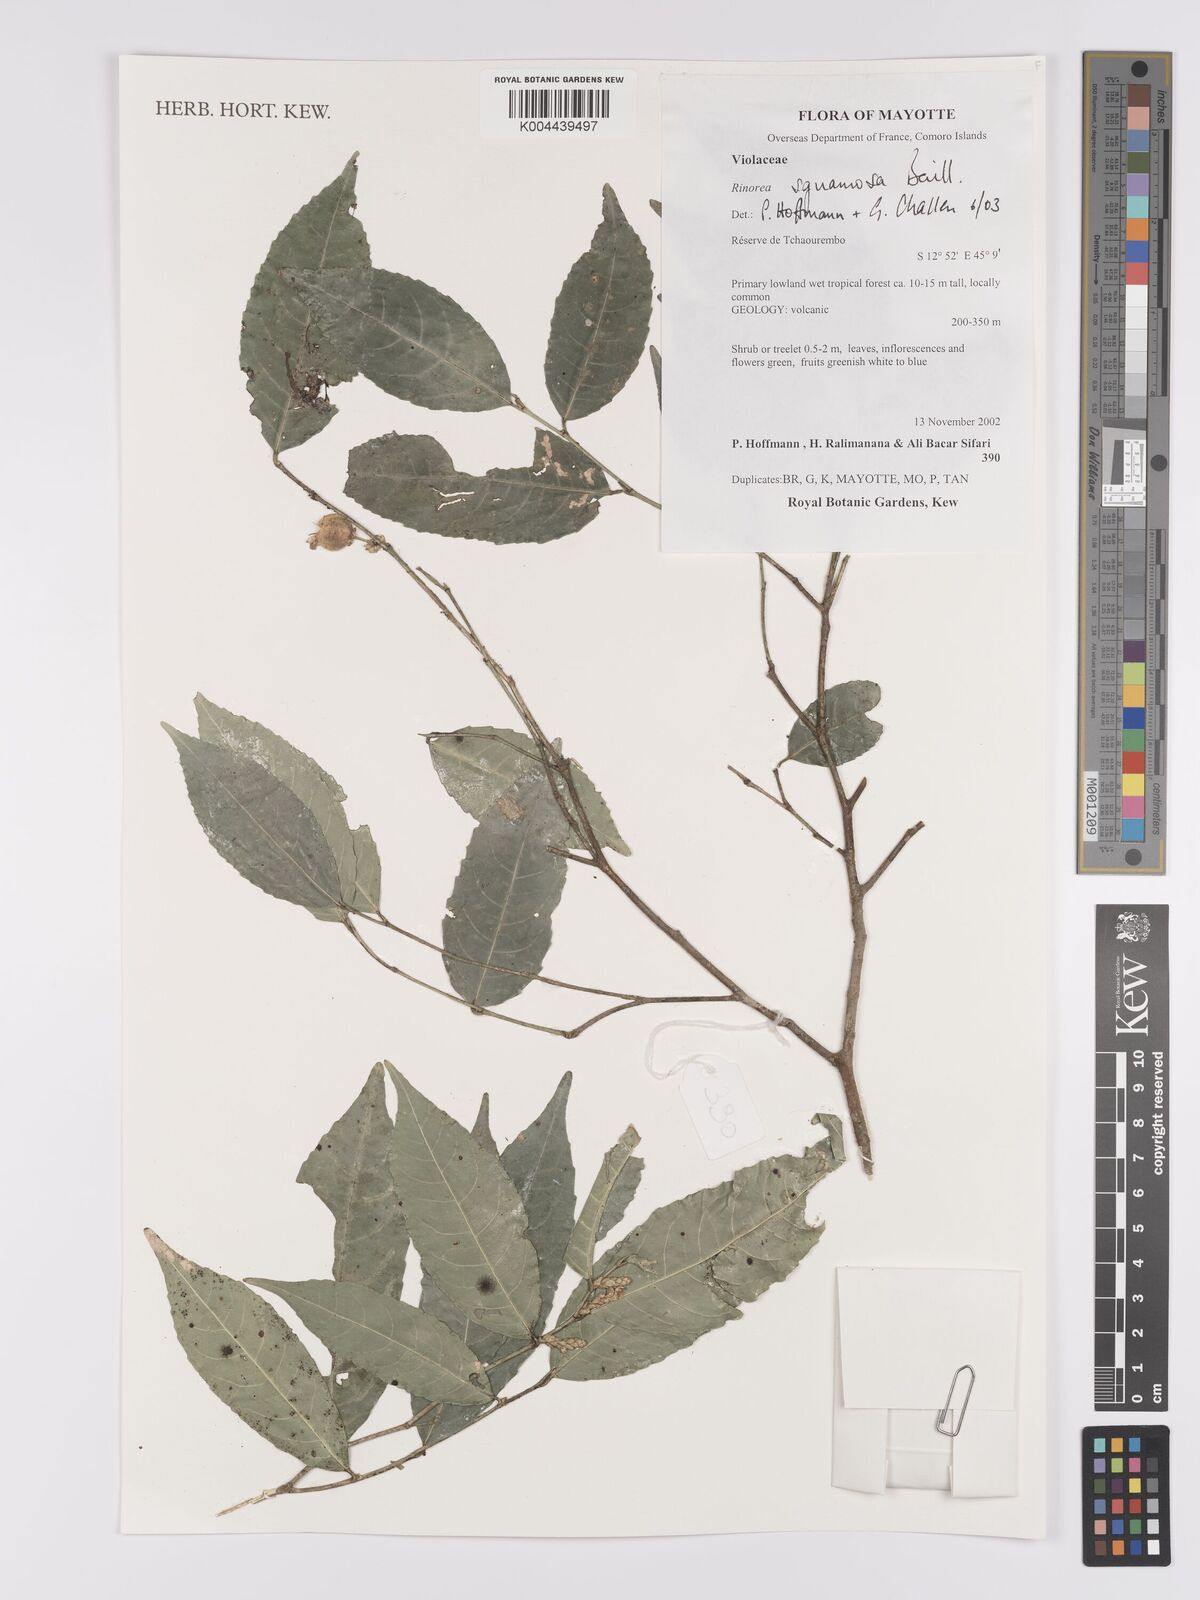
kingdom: Plantae
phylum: Tracheophyta
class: Magnoliopsida
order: Malpighiales
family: Violaceae
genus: Rinorea
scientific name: Rinorea squamosa
